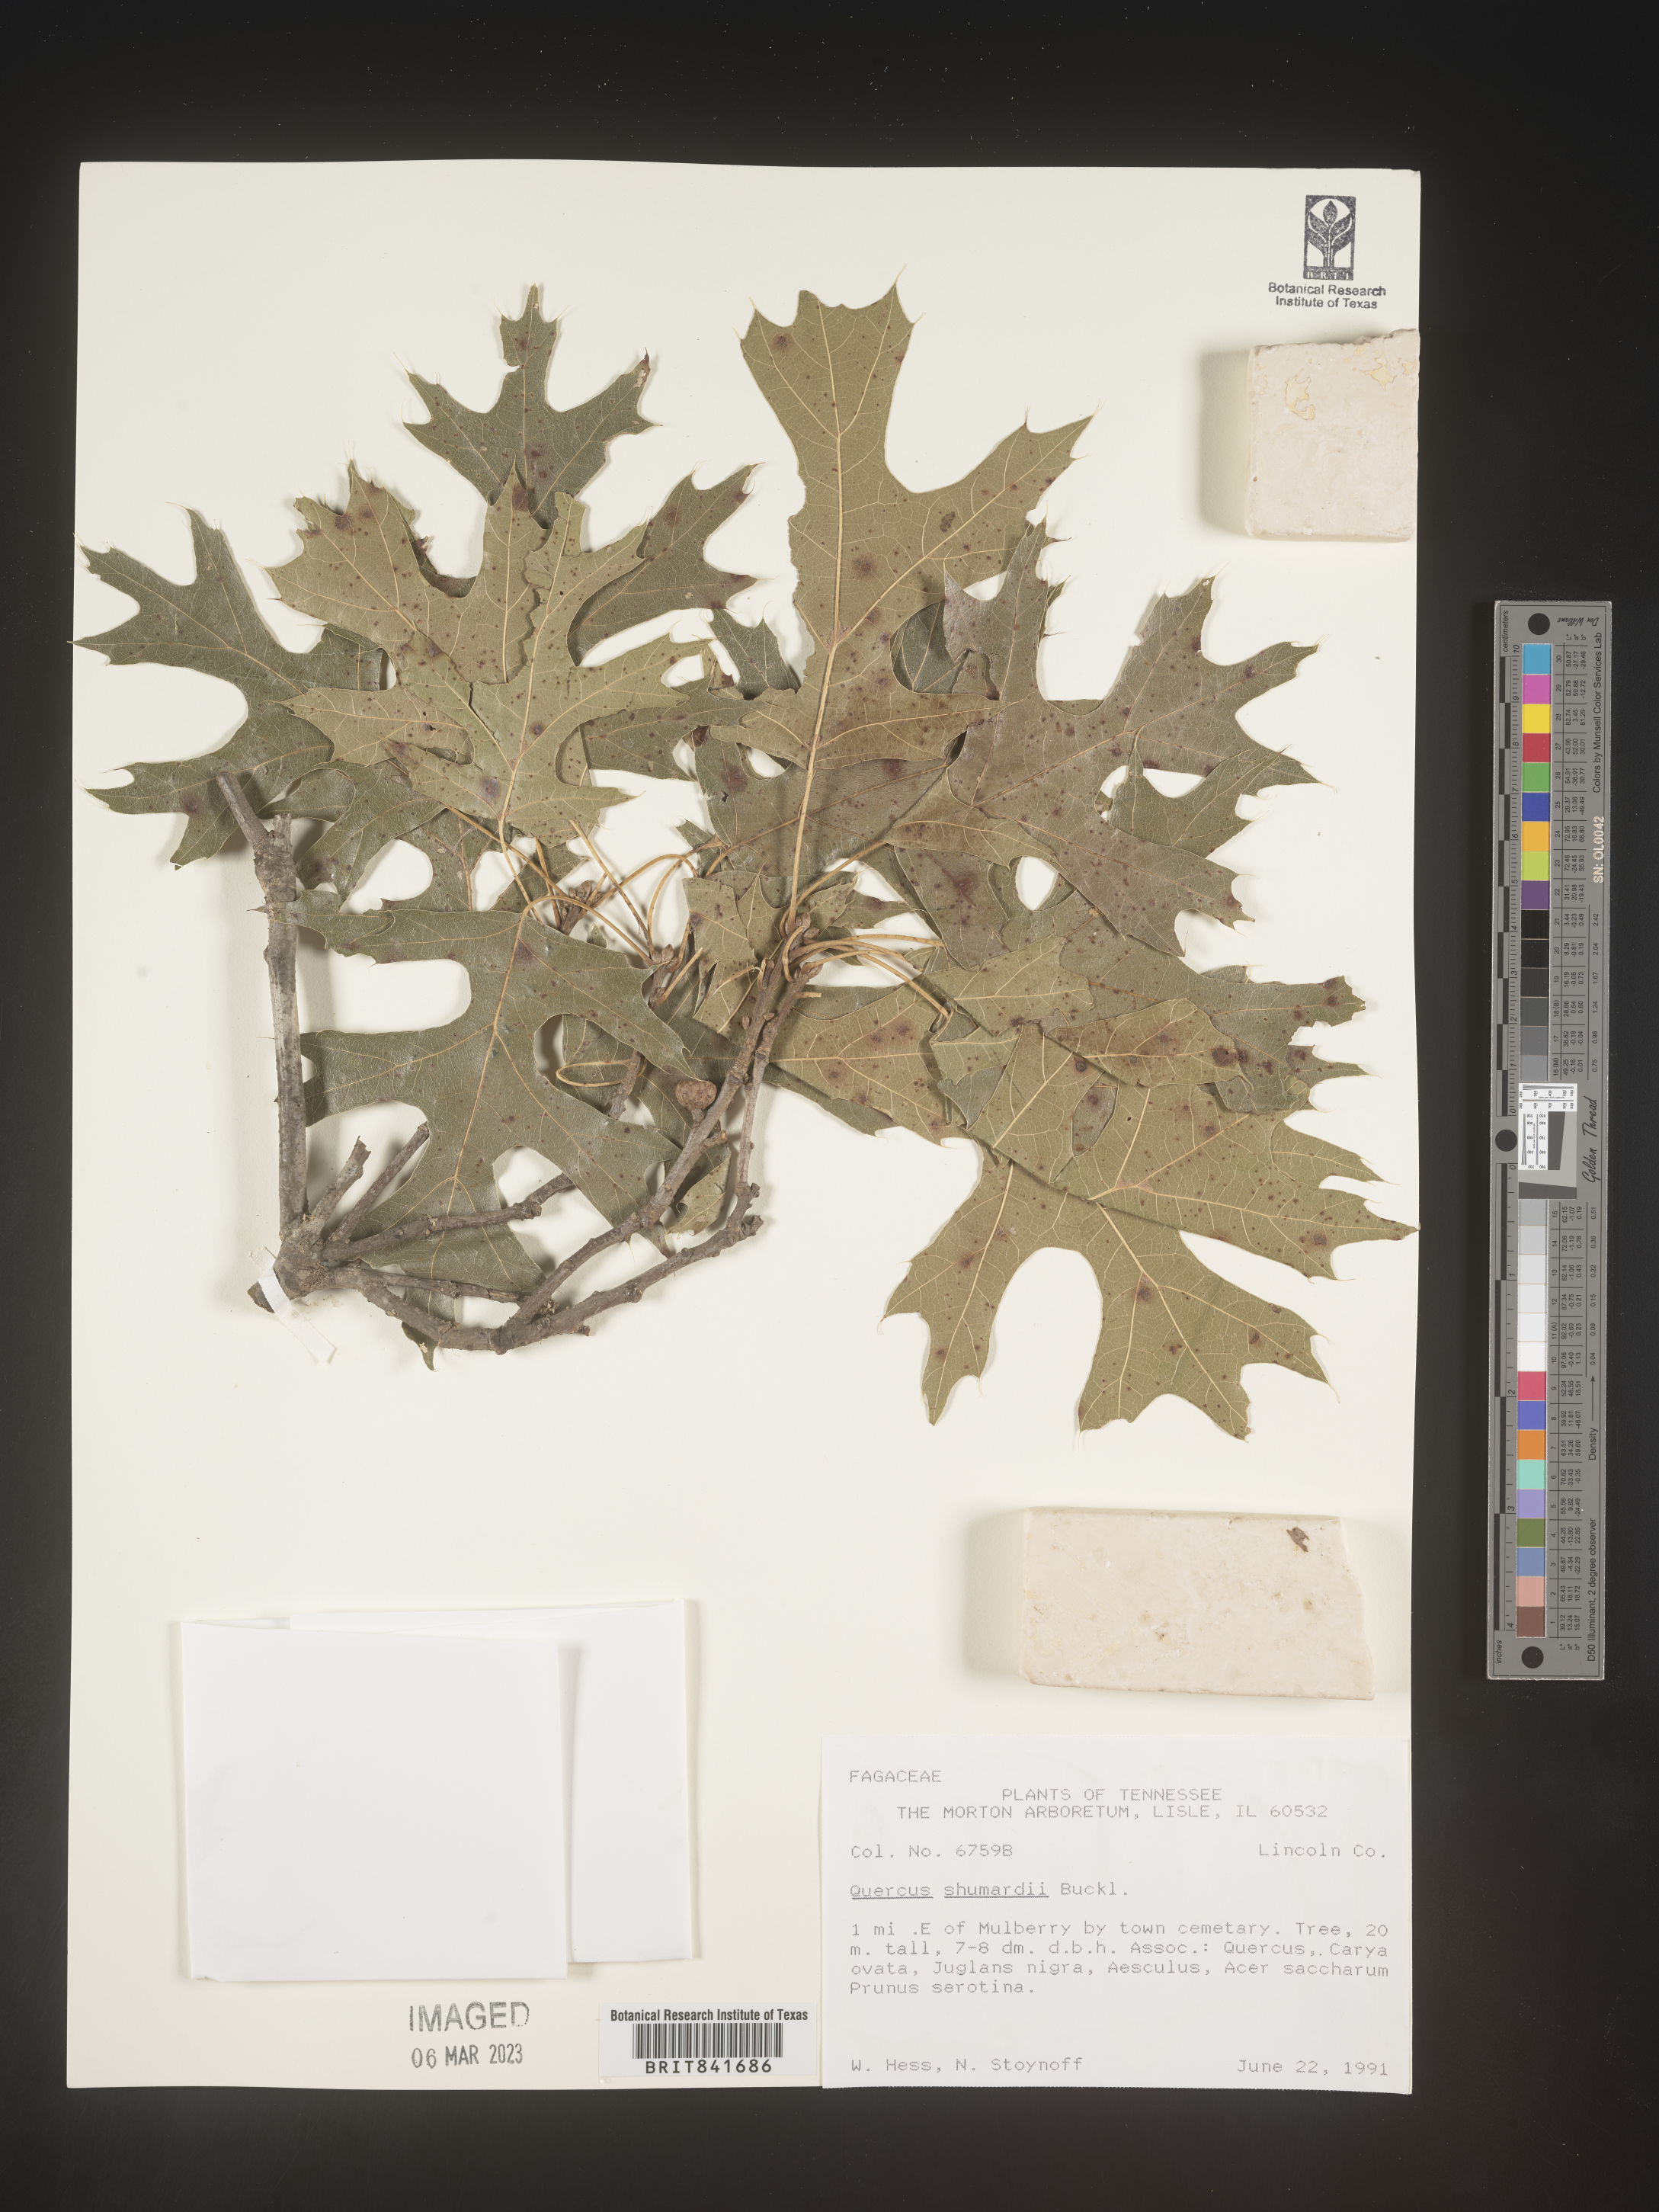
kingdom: Plantae
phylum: Tracheophyta
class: Magnoliopsida
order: Fagales
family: Fagaceae
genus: Quercus
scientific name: Quercus shumardii
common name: Shumard oak
